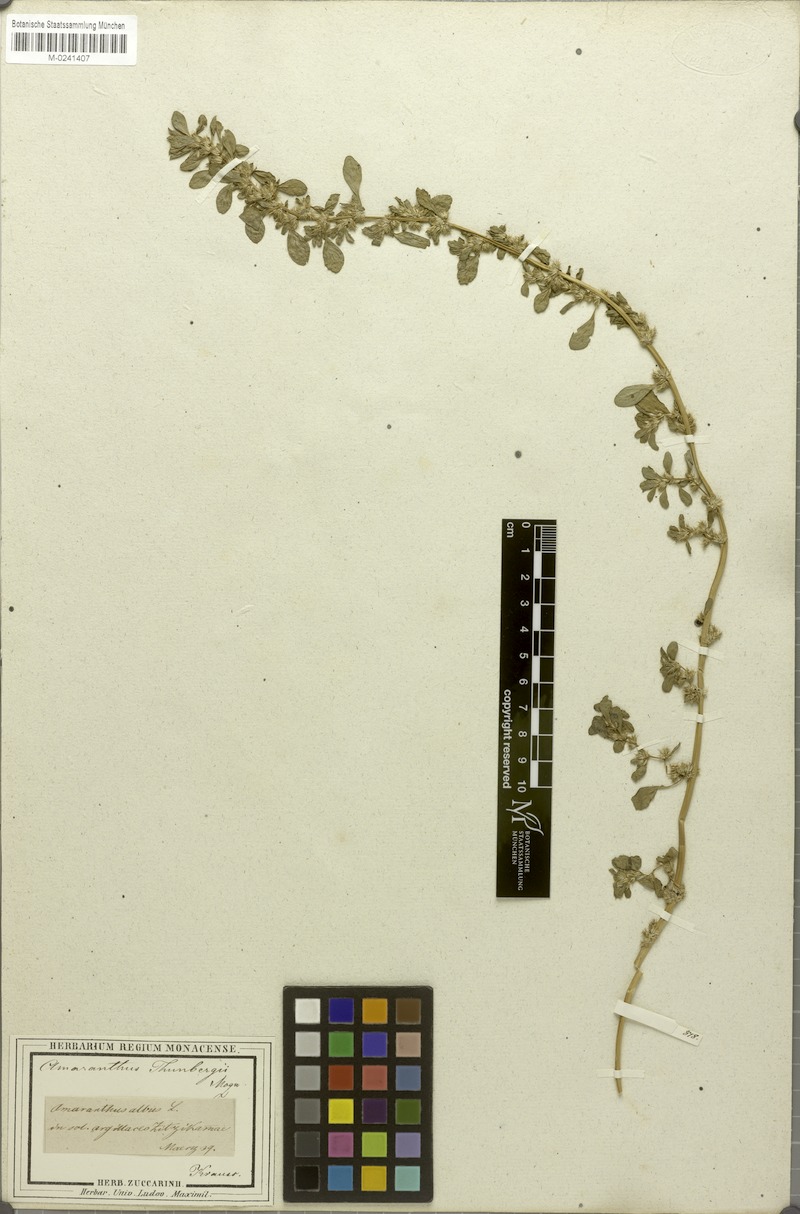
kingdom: Plantae
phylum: Tracheophyta
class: Magnoliopsida
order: Caryophyllales
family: Amaranthaceae
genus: Amaranthus
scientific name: Amaranthus thunbergii
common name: Thunberg's pigweed
